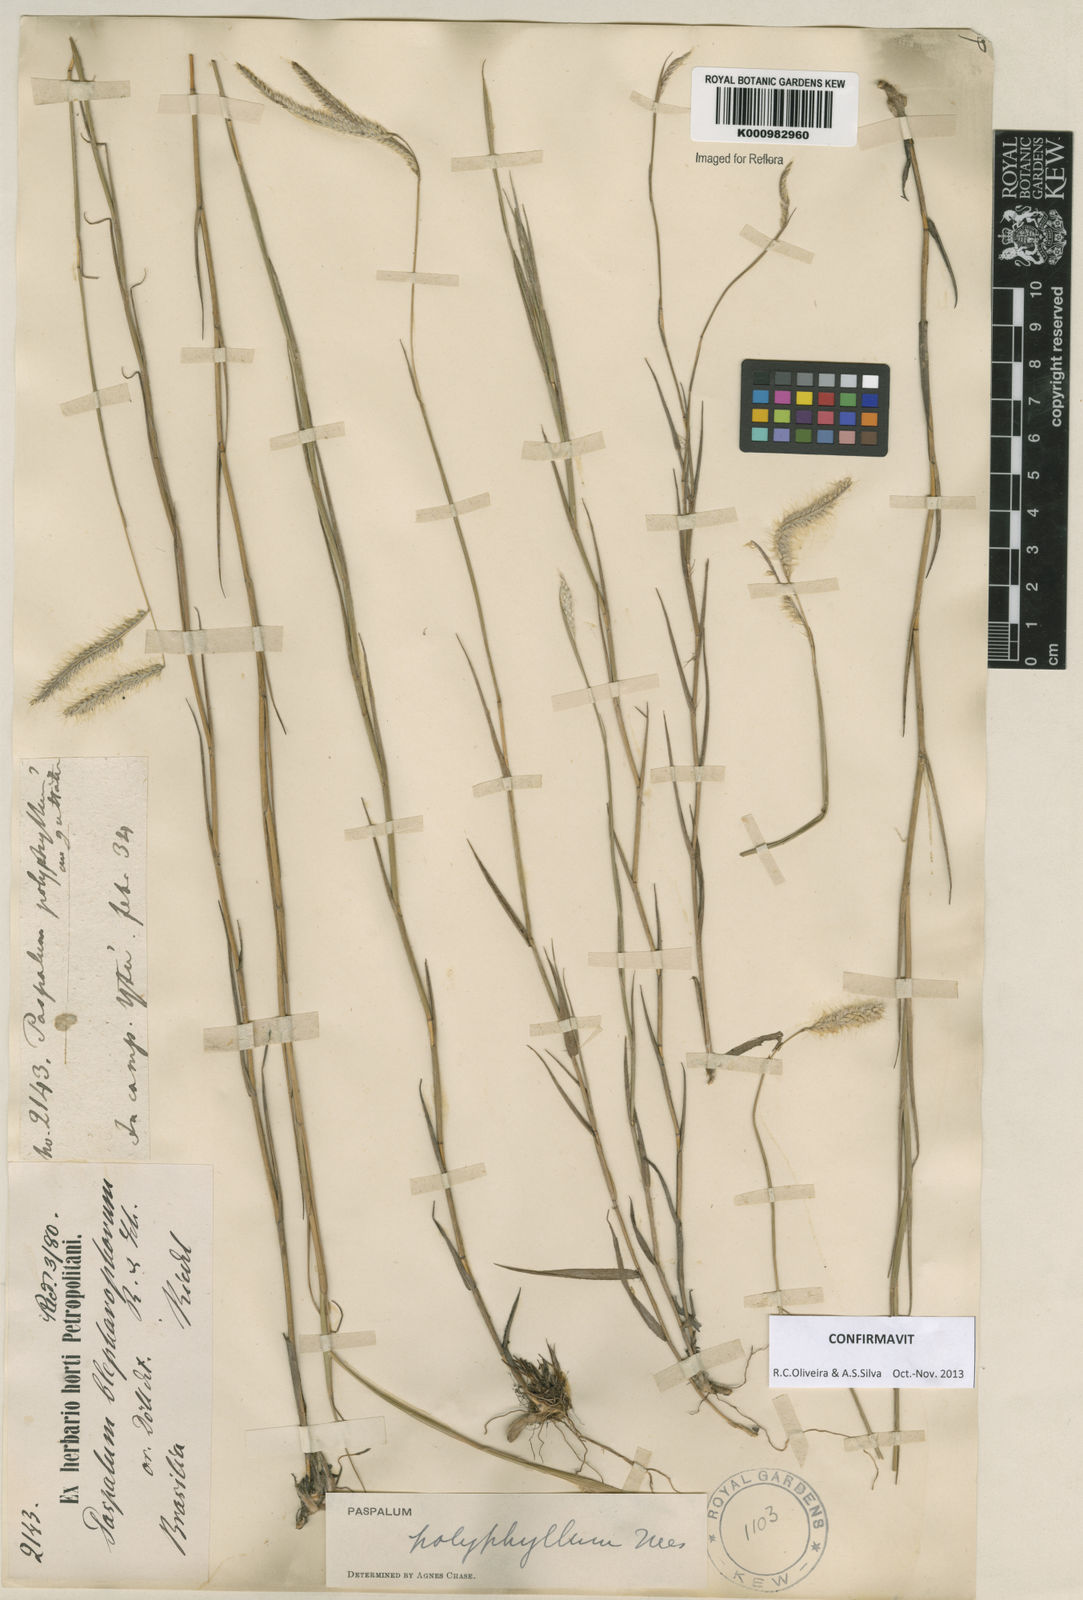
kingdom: Plantae
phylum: Tracheophyta
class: Liliopsida
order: Poales
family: Poaceae
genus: Paspalum
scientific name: Paspalum
